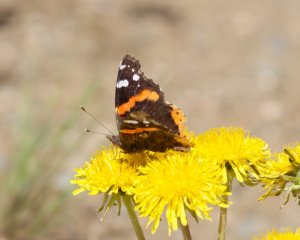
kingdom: Animalia
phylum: Arthropoda
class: Insecta
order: Lepidoptera
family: Nymphalidae
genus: Vanessa
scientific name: Vanessa atalanta
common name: Red Admiral
